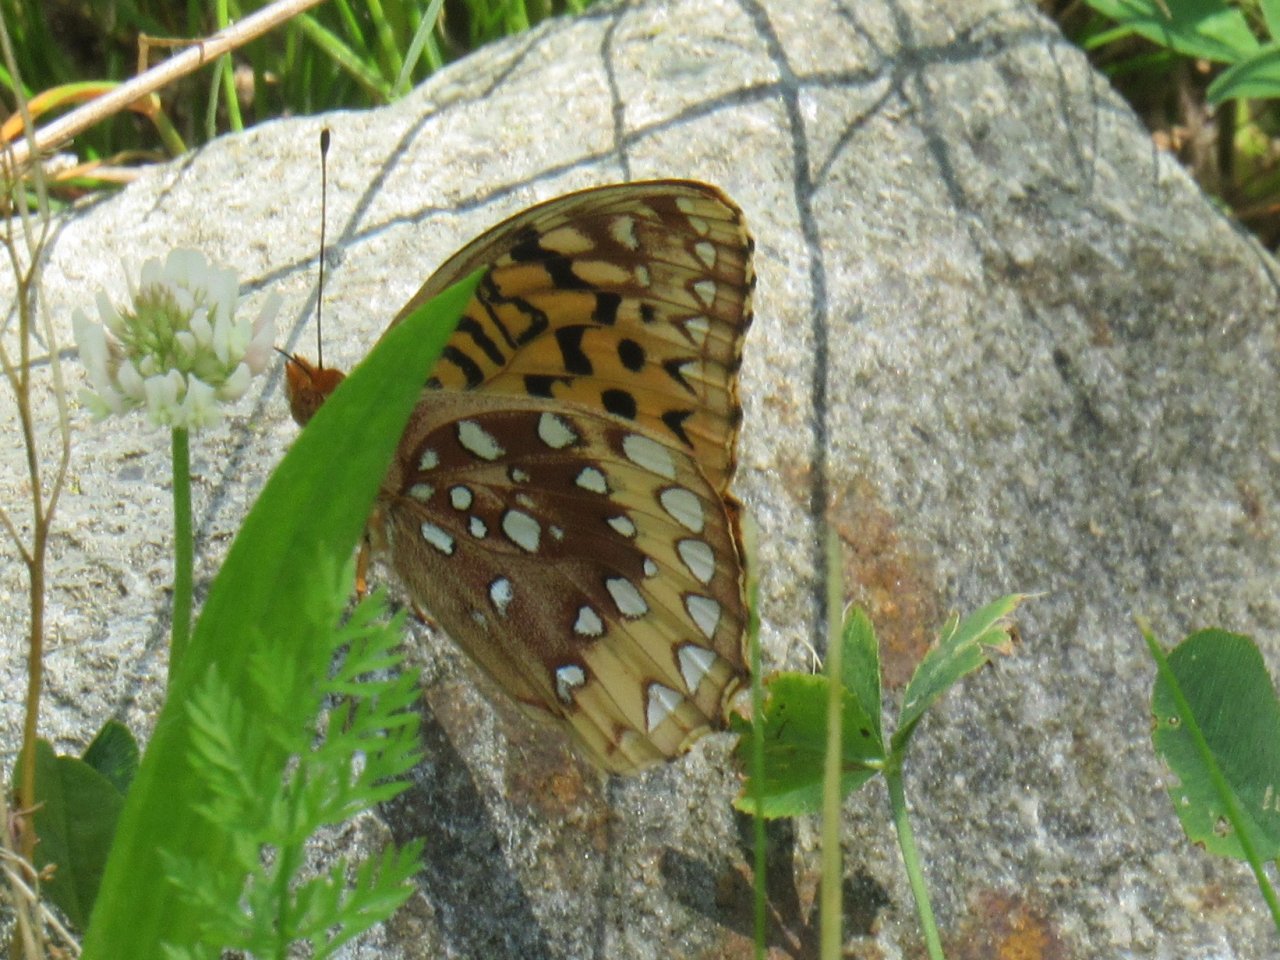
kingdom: Animalia
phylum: Arthropoda
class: Insecta
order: Lepidoptera
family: Nymphalidae
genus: Speyeria
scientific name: Speyeria cybele
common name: Great Spangled Fritillary
